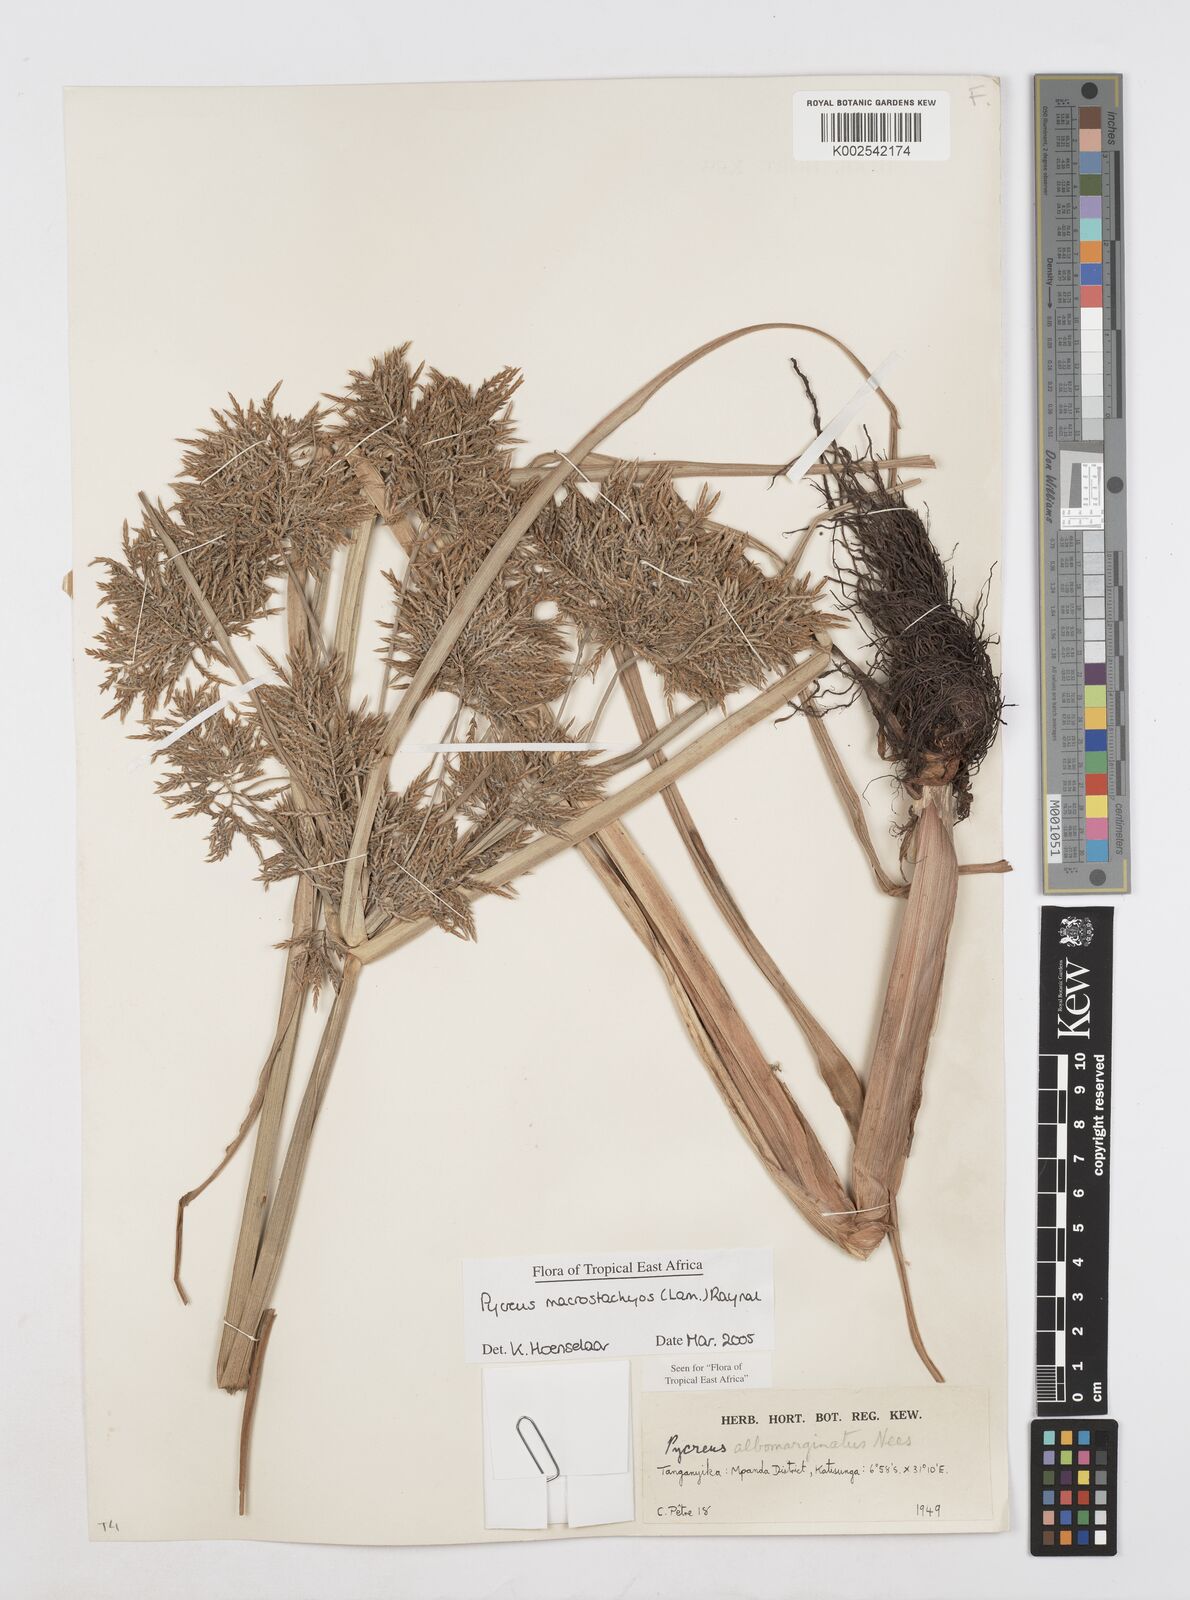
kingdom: Plantae
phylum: Tracheophyta
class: Liliopsida
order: Poales
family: Cyperaceae
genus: Cyperus
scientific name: Cyperus macrostachyos
